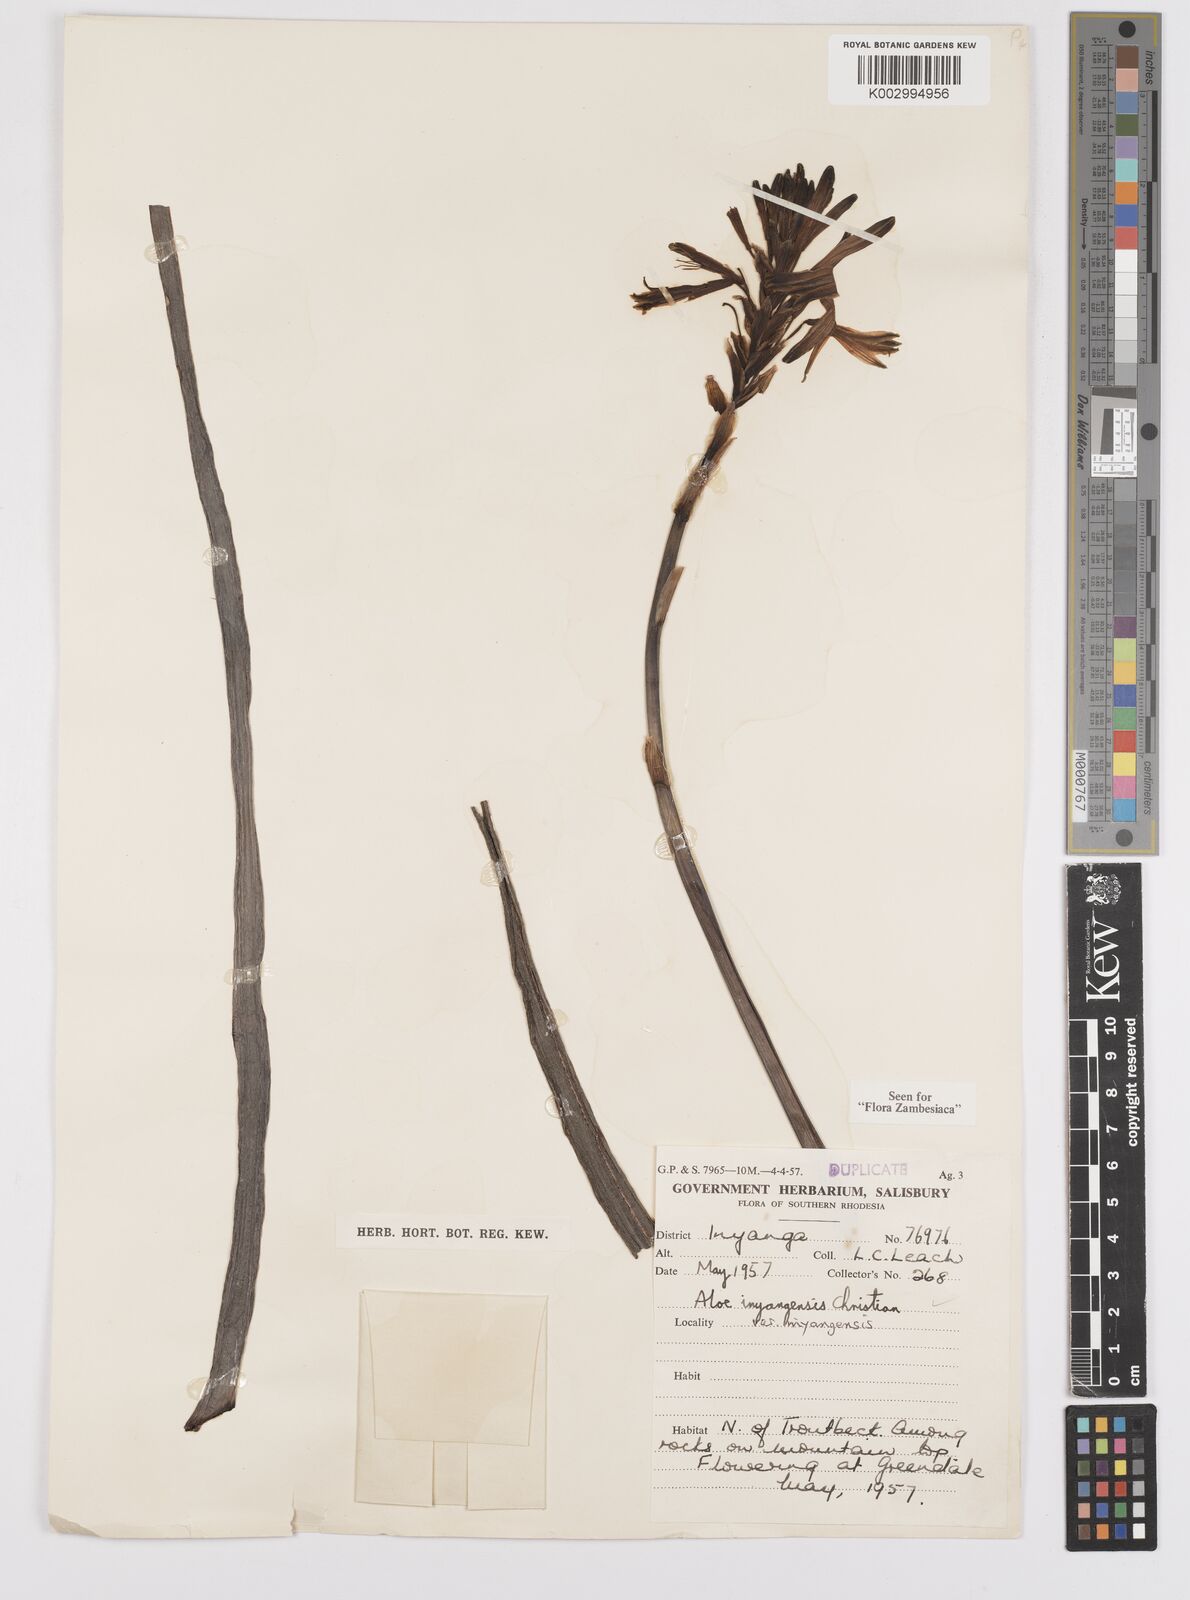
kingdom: Plantae
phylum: Tracheophyta
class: Liliopsida
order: Asparagales
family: Asphodelaceae
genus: Aloe
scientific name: Aloe inyangensis
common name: Inyanga aloe
